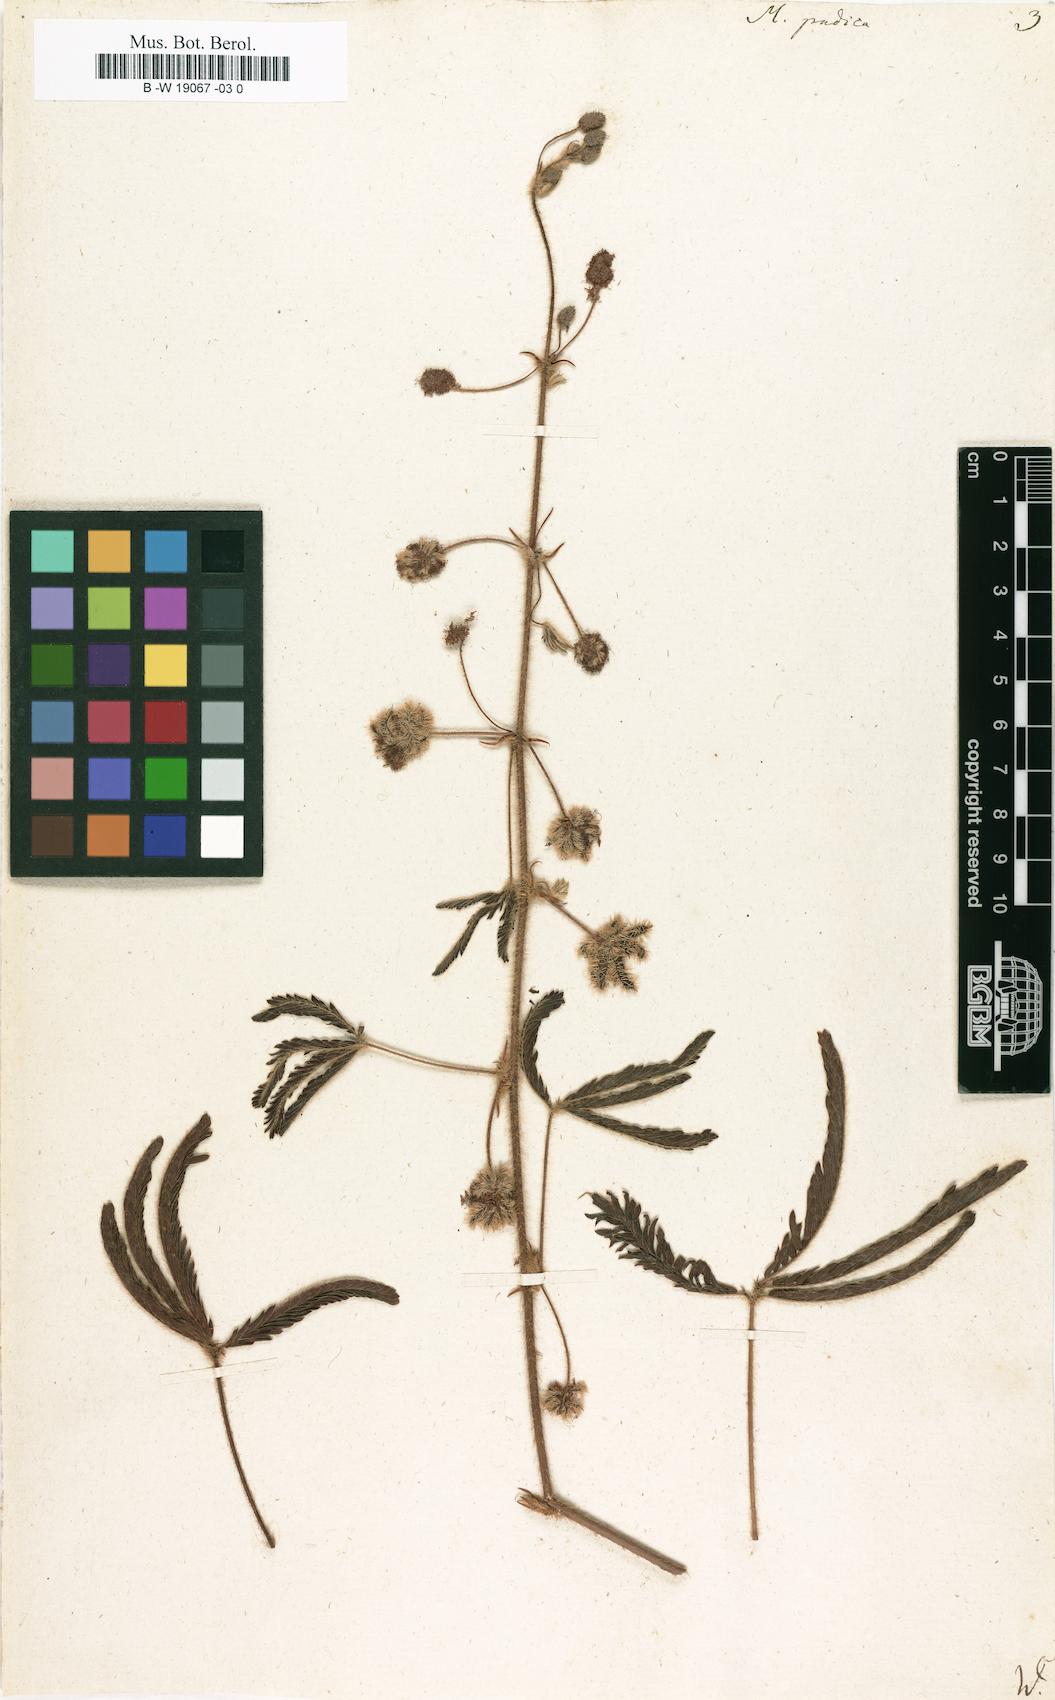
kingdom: Plantae
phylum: Tracheophyta
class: Magnoliopsida
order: Fabales
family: Fabaceae
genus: Mimosa
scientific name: Mimosa pudica
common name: Sensitive plant
